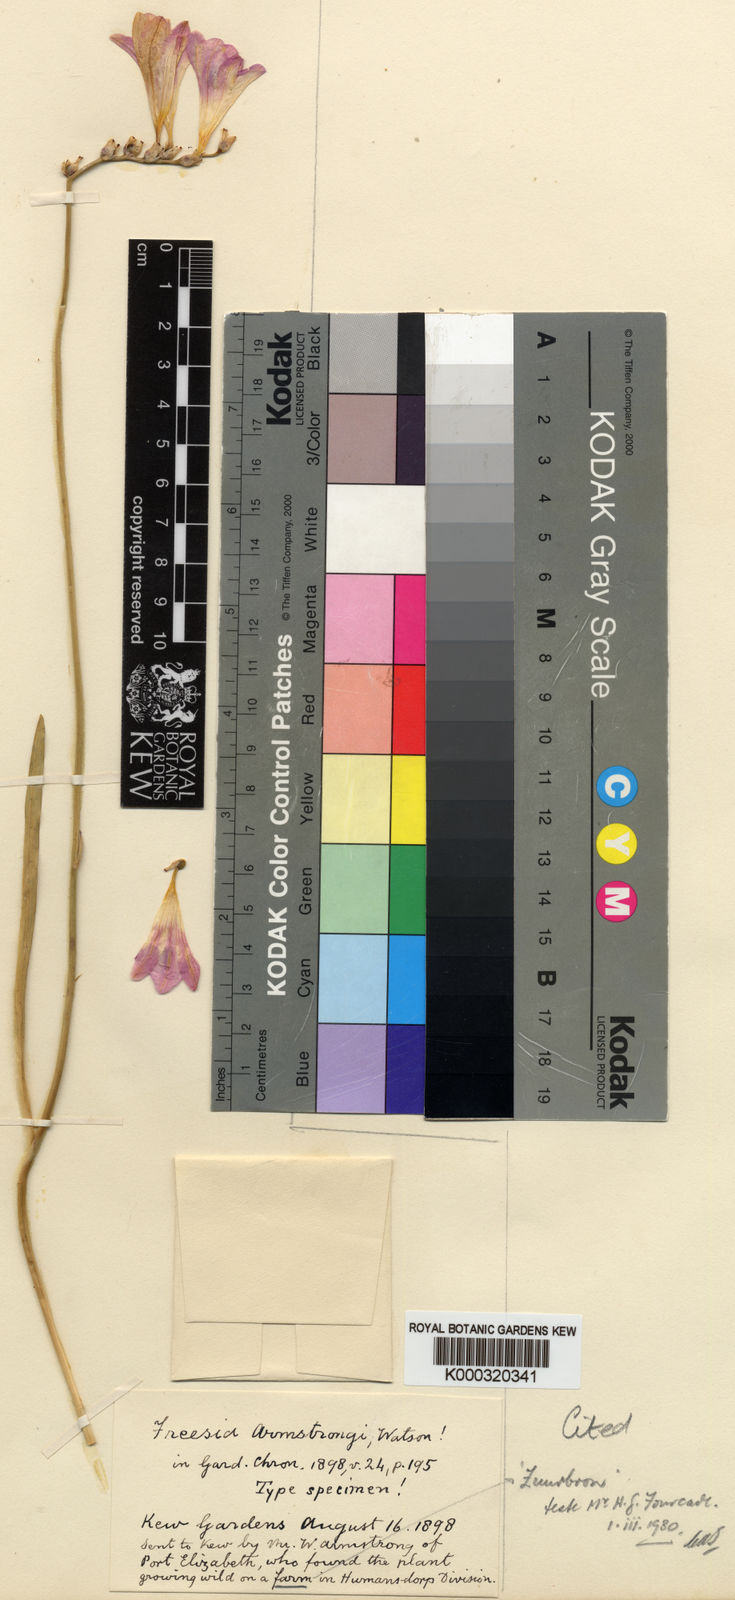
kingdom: Plantae
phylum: Tracheophyta
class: Liliopsida
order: Asparagales
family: Iridaceae
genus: Freesia
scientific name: Freesia corymbosa
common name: Common freesia
